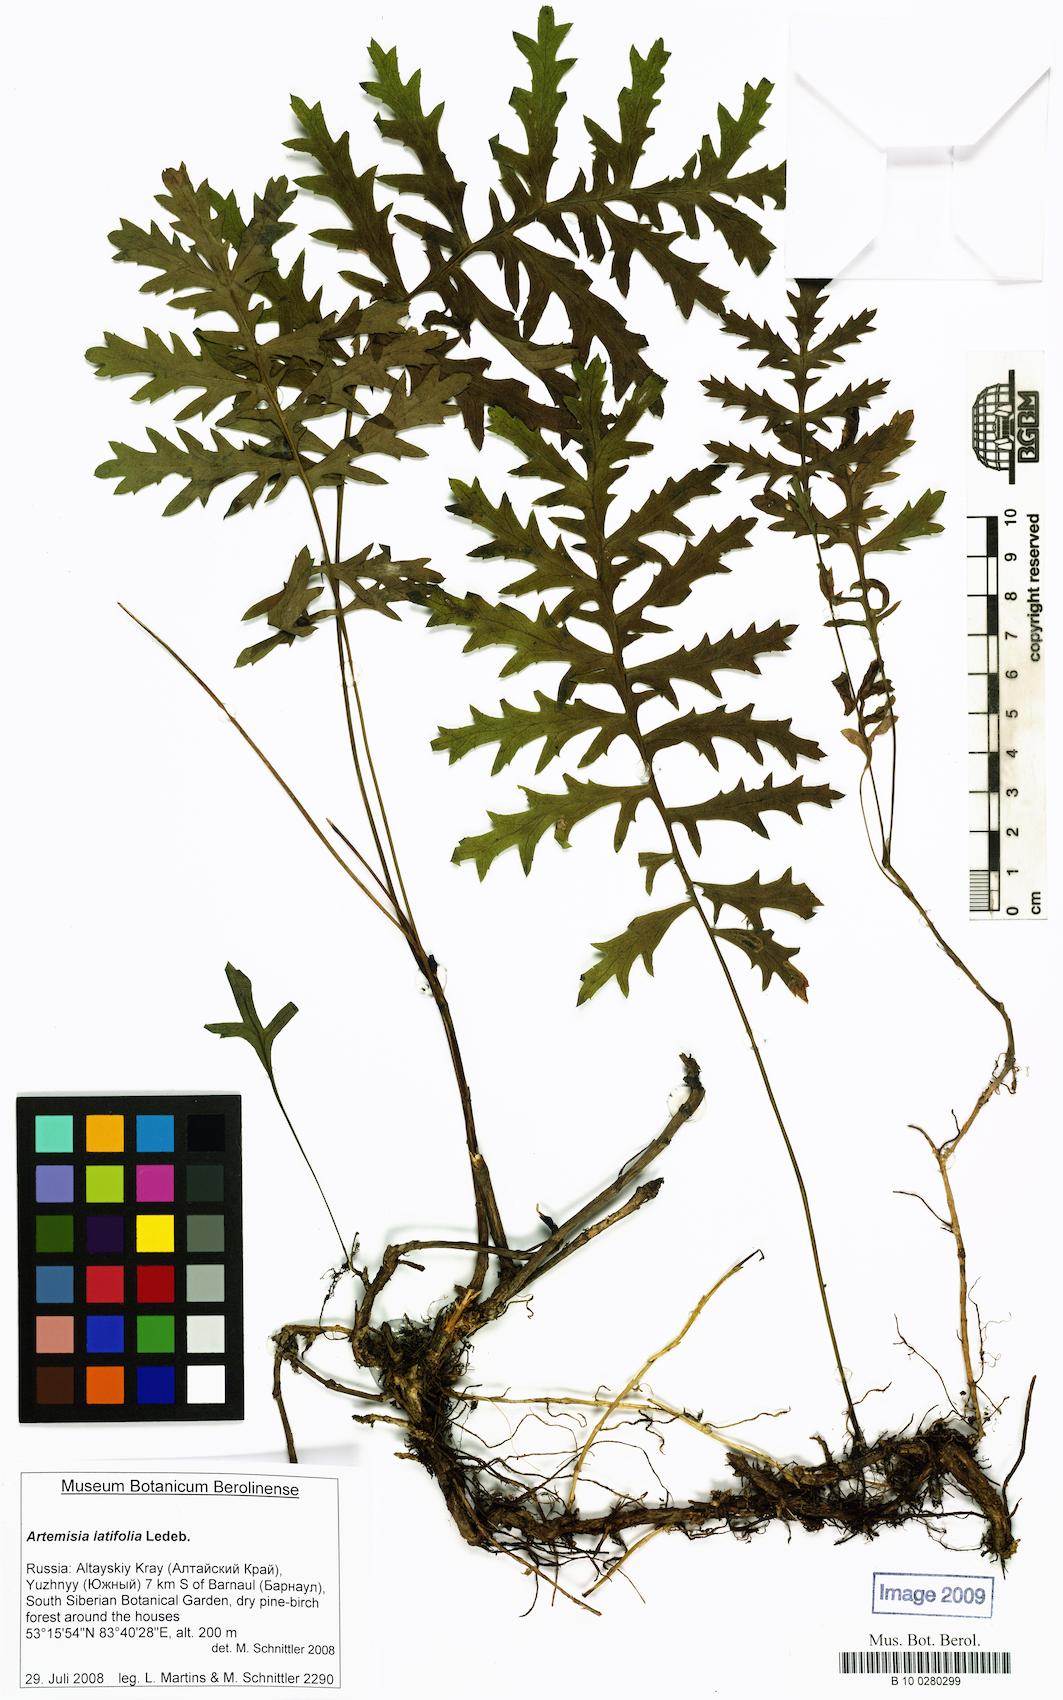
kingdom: Plantae
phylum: Tracheophyta
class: Magnoliopsida
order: Asterales
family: Asteraceae
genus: Artemisia
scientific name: Artemisia latifolia
